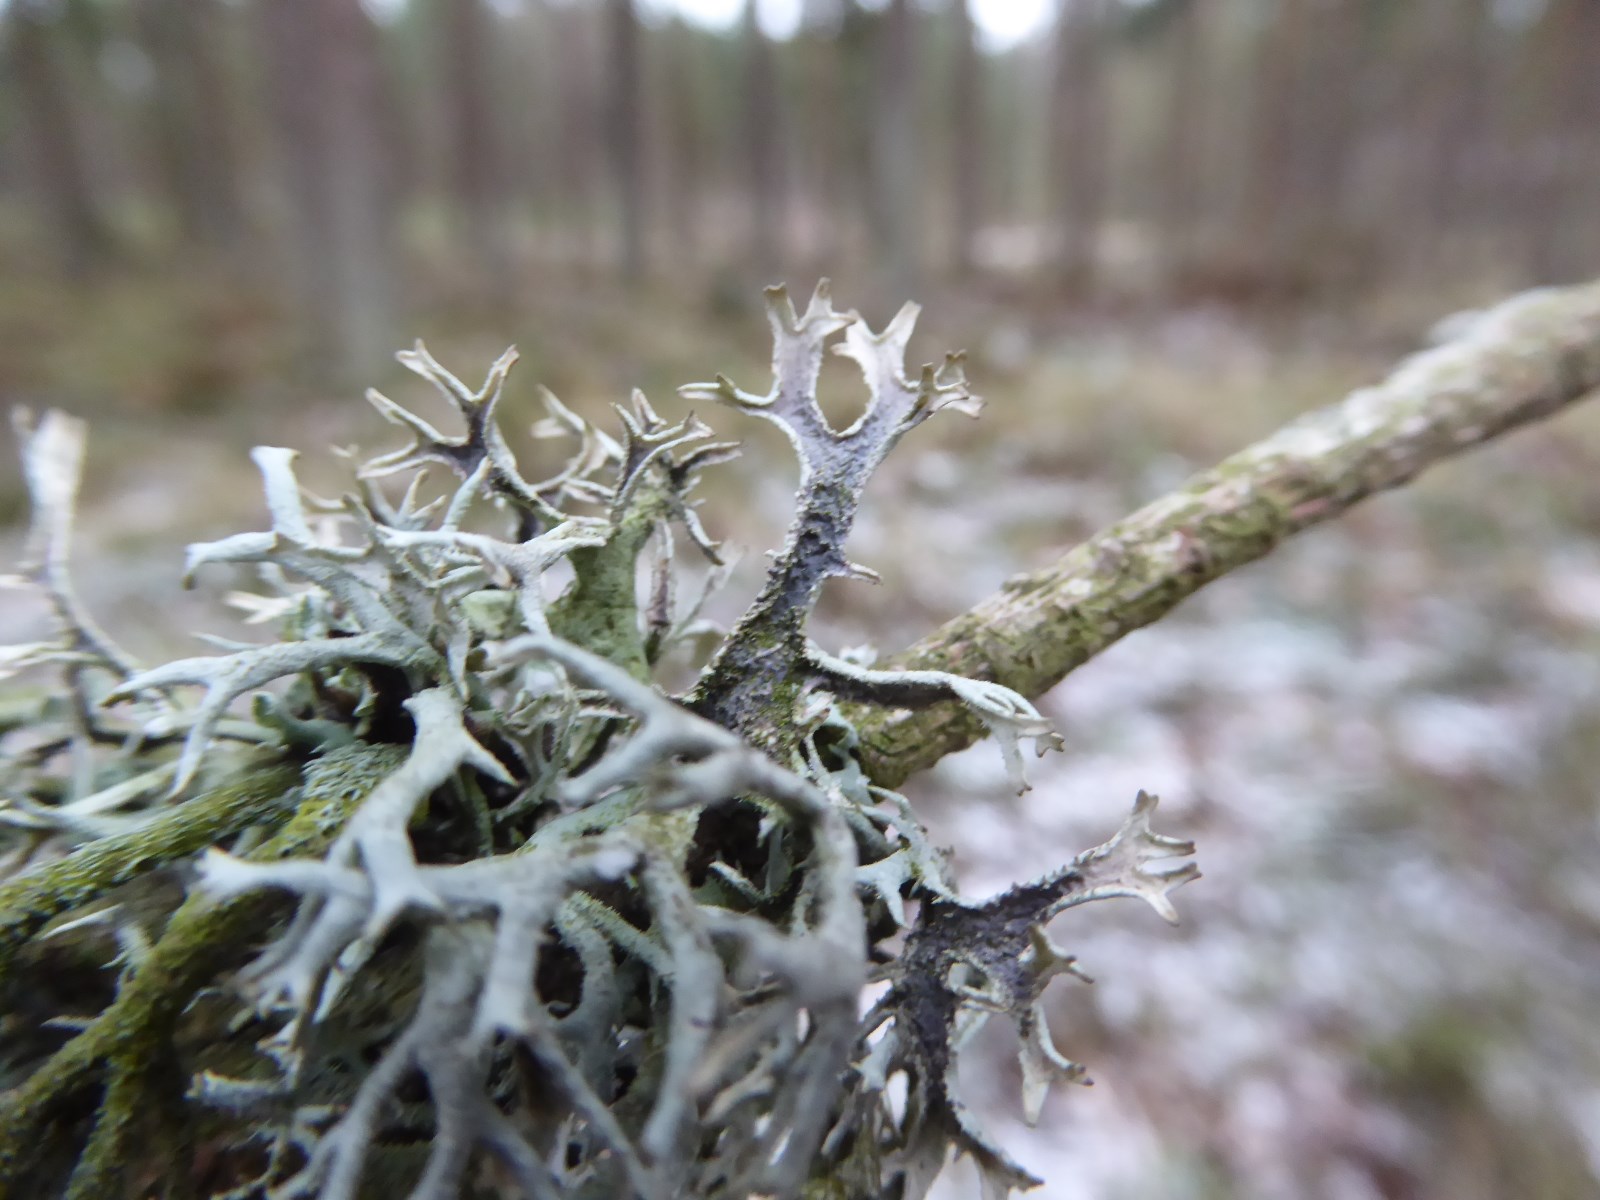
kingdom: Fungi
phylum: Ascomycota
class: Lecanoromycetes
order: Lecanorales
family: Parmeliaceae
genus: Pseudevernia
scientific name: Pseudevernia furfuracea
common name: grå fyrrelav
